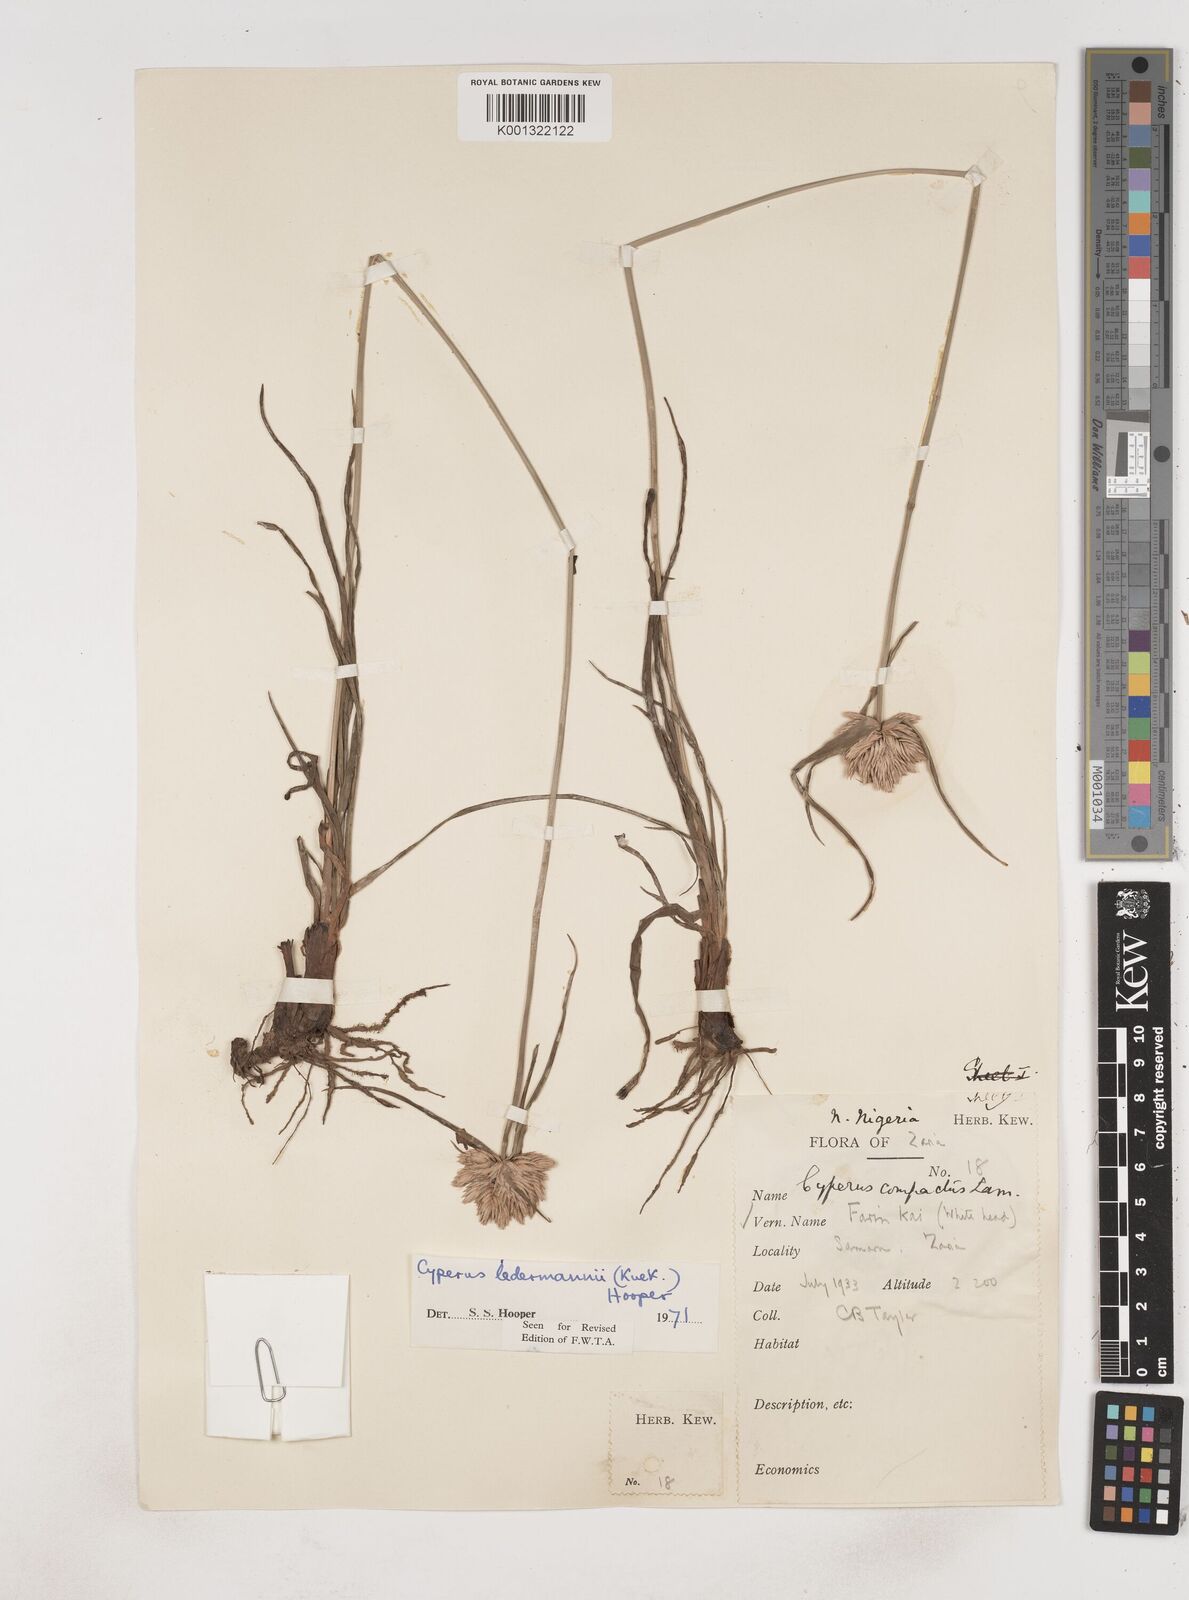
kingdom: Plantae
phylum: Tracheophyta
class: Liliopsida
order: Poales
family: Cyperaceae
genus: Cyperus
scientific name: Cyperus niveus
